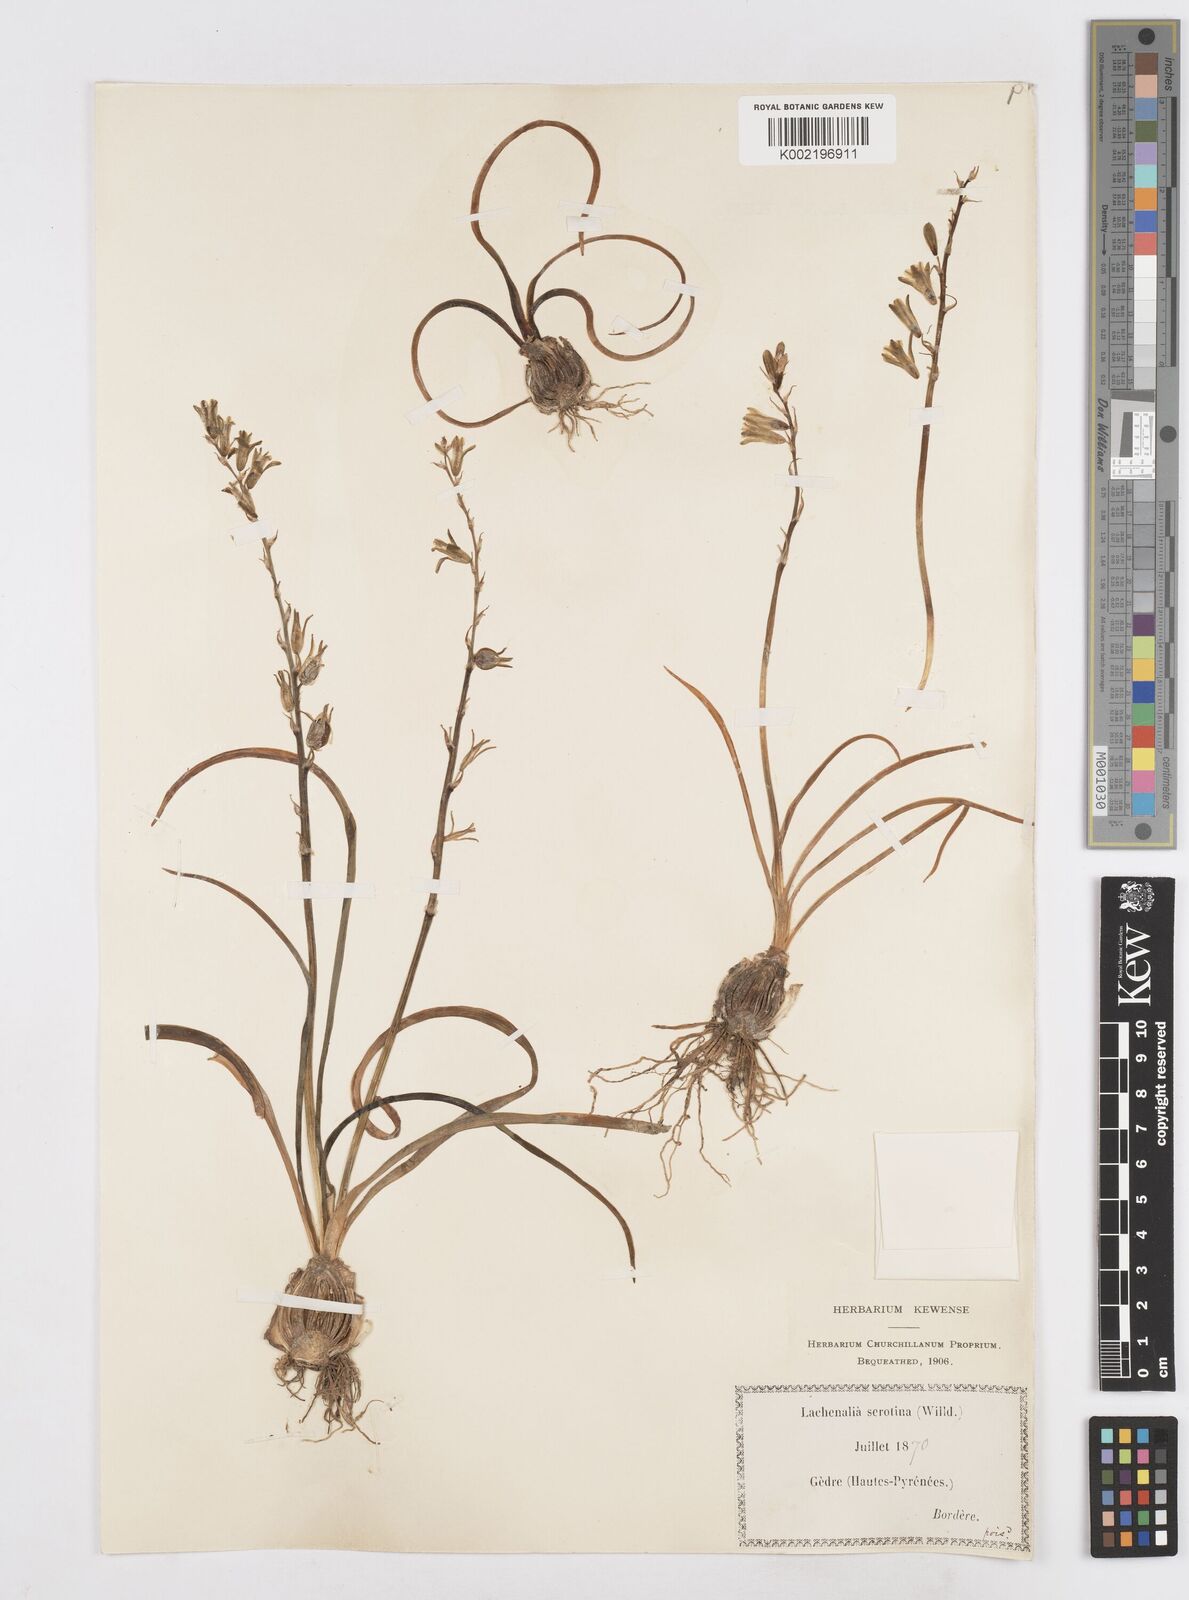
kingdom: Plantae
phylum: Tracheophyta
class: Liliopsida
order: Asparagales
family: Asparagaceae
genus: Dipcadi
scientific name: Dipcadi serotinum
